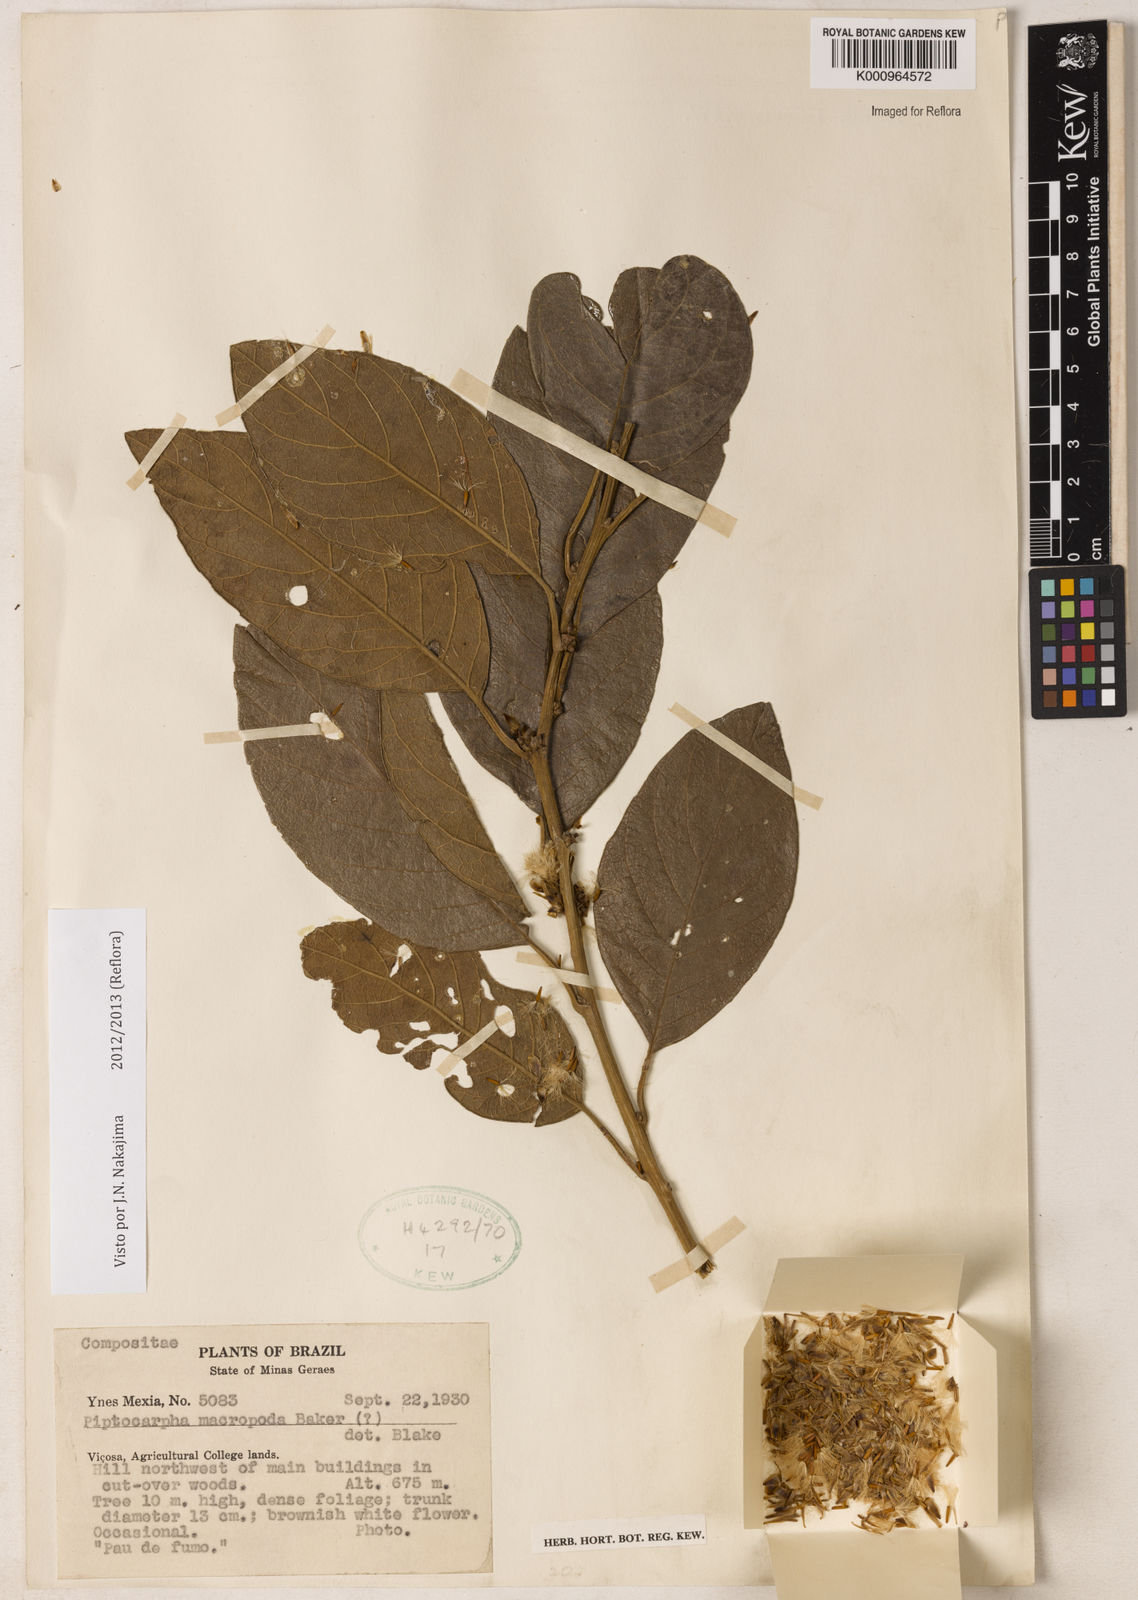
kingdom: Plantae
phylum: Tracheophyta
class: Magnoliopsida
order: Asterales
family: Asteraceae
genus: Piptocarpha
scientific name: Piptocarpha macropoda
